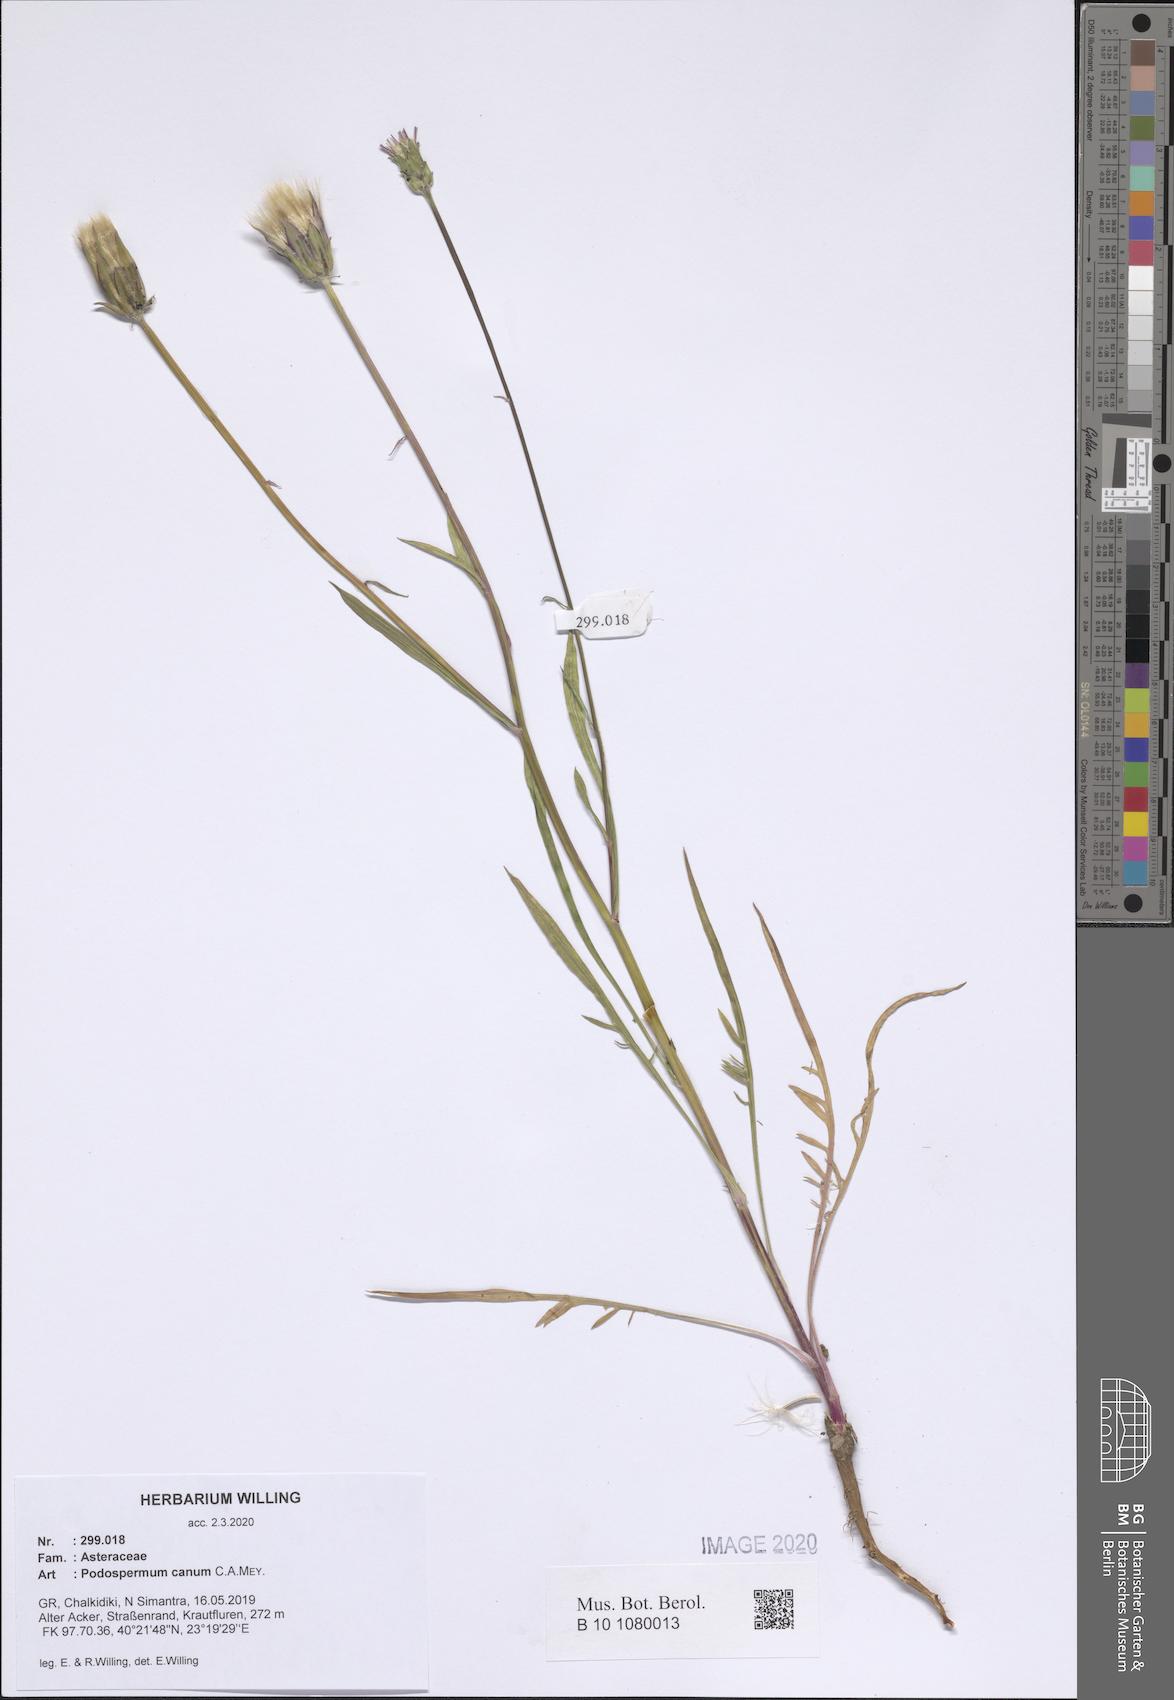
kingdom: Plantae
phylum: Tracheophyta
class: Magnoliopsida
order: Asterales
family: Asteraceae
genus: Scorzonera
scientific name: Scorzonera cana
